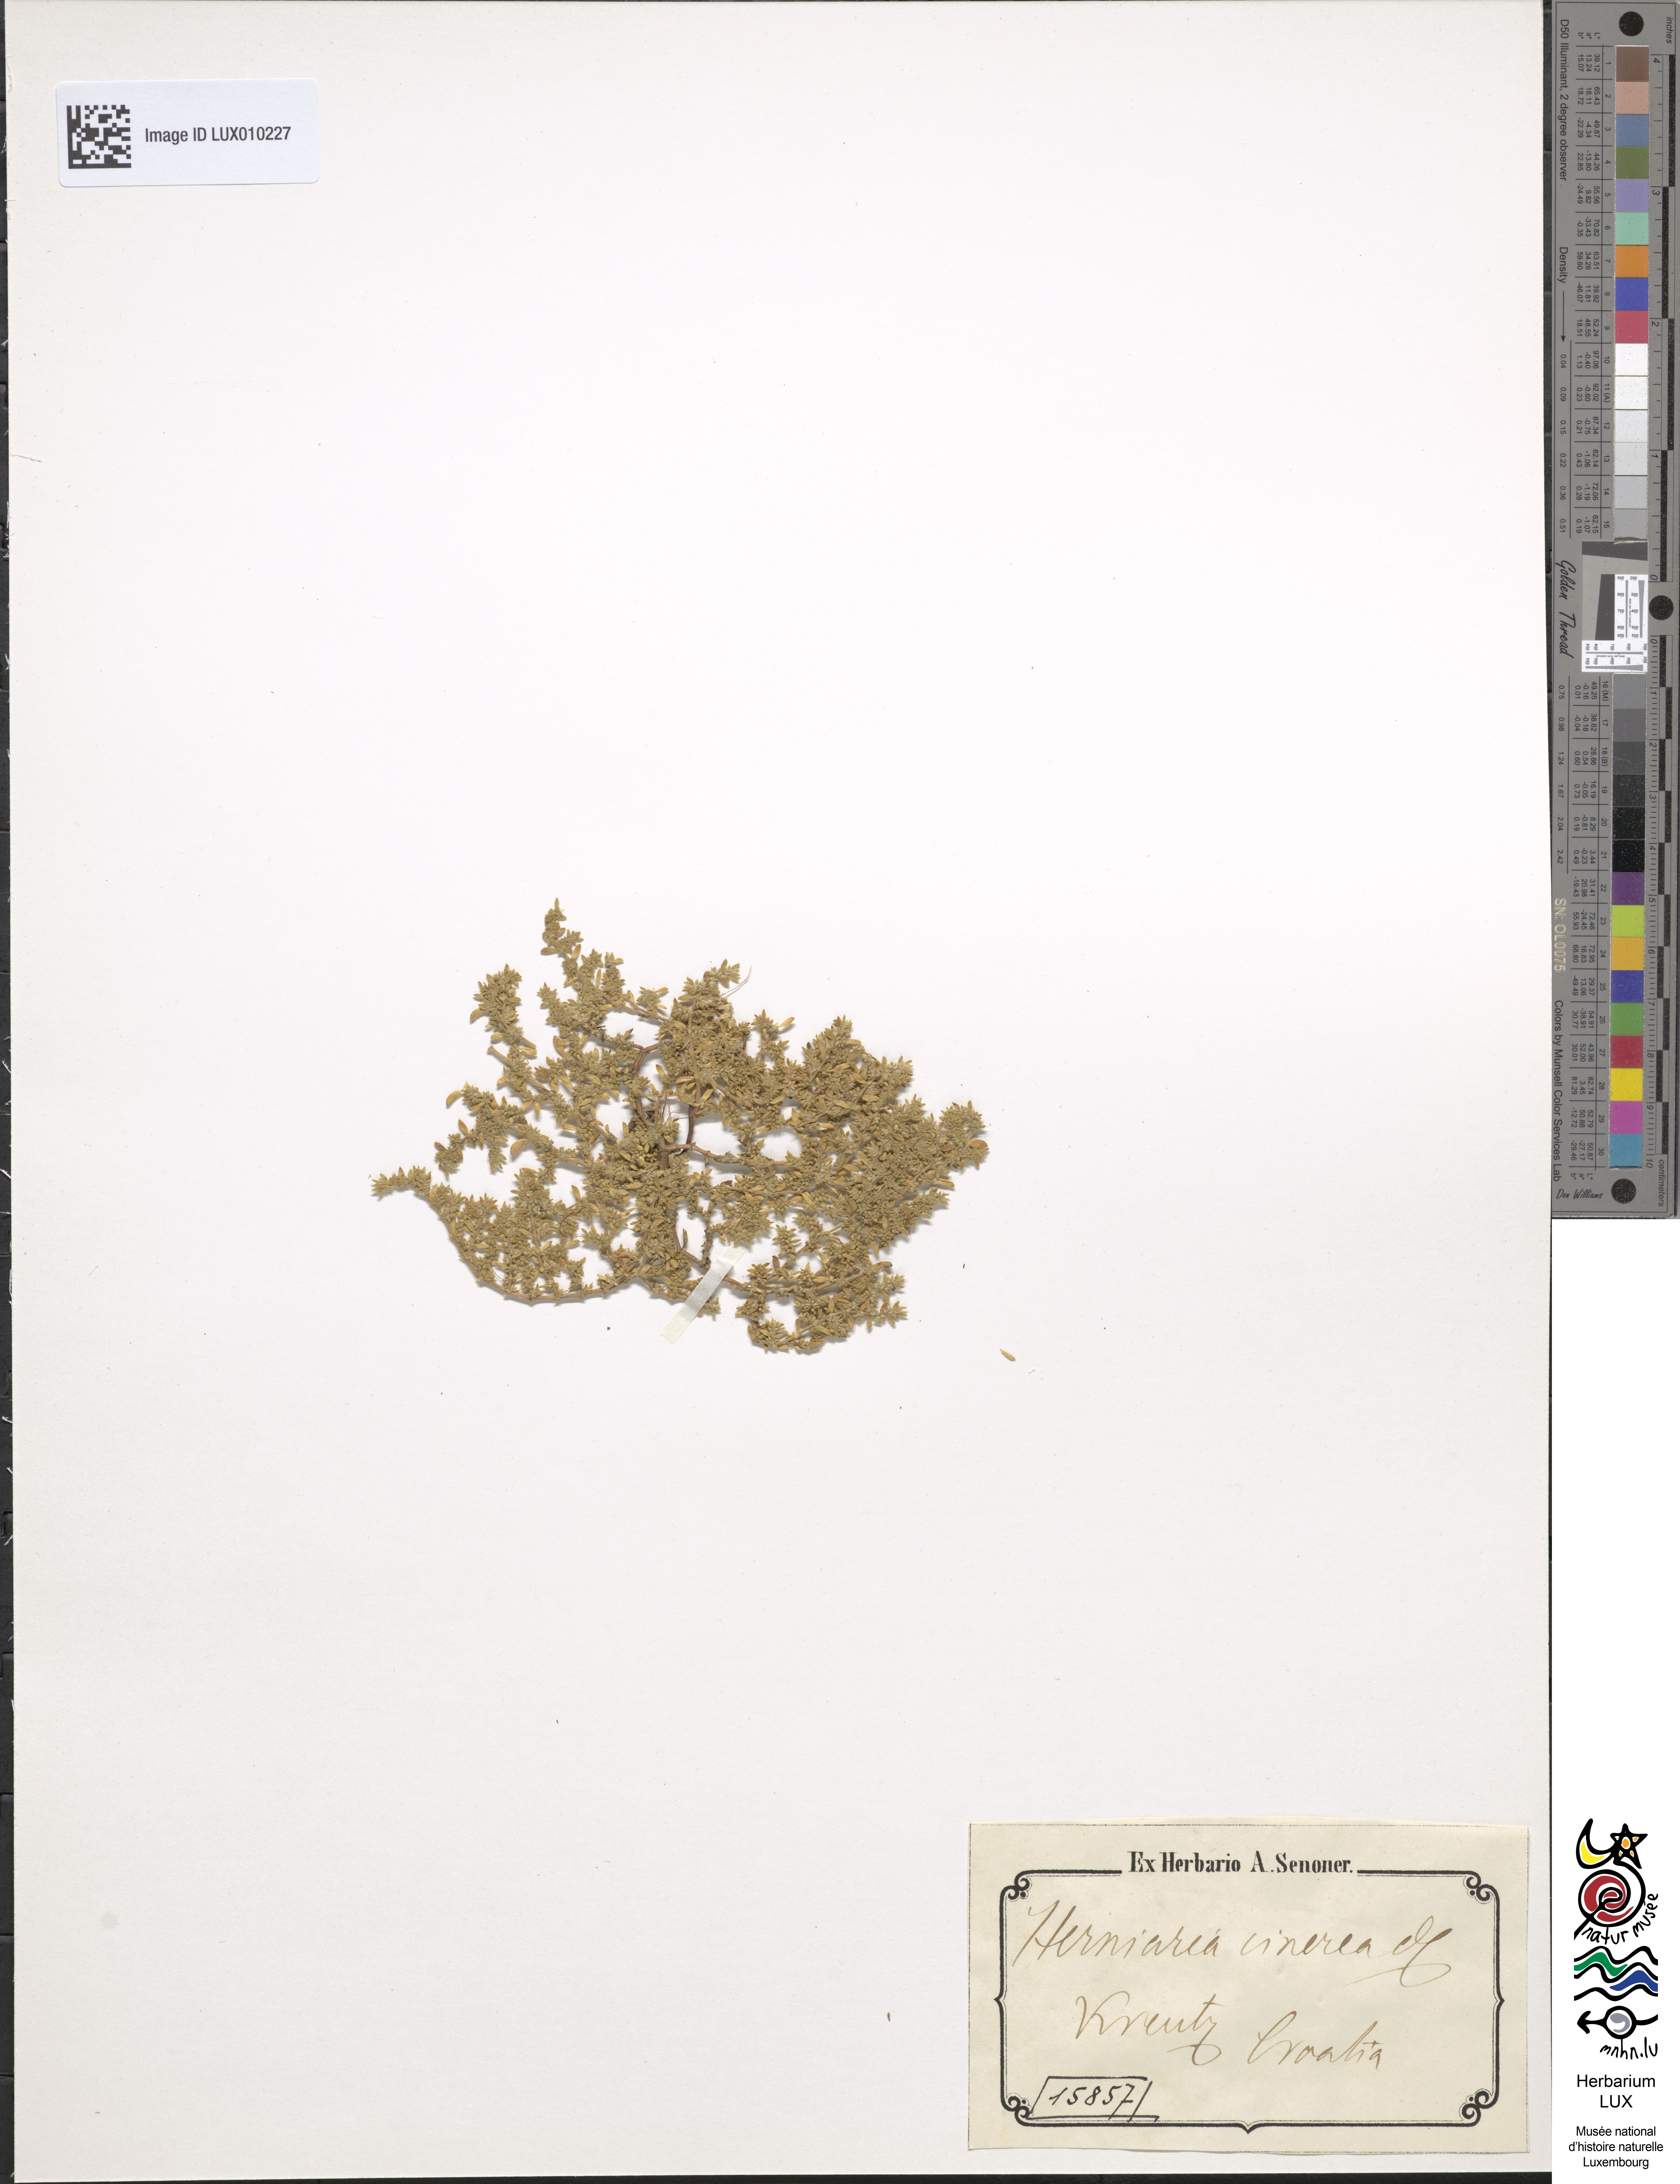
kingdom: Plantae
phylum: Tracheophyta
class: Magnoliopsida
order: Caryophyllales
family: Caryophyllaceae
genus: Herniaria
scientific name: Herniaria cinerea
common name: Hairy rupturewort
